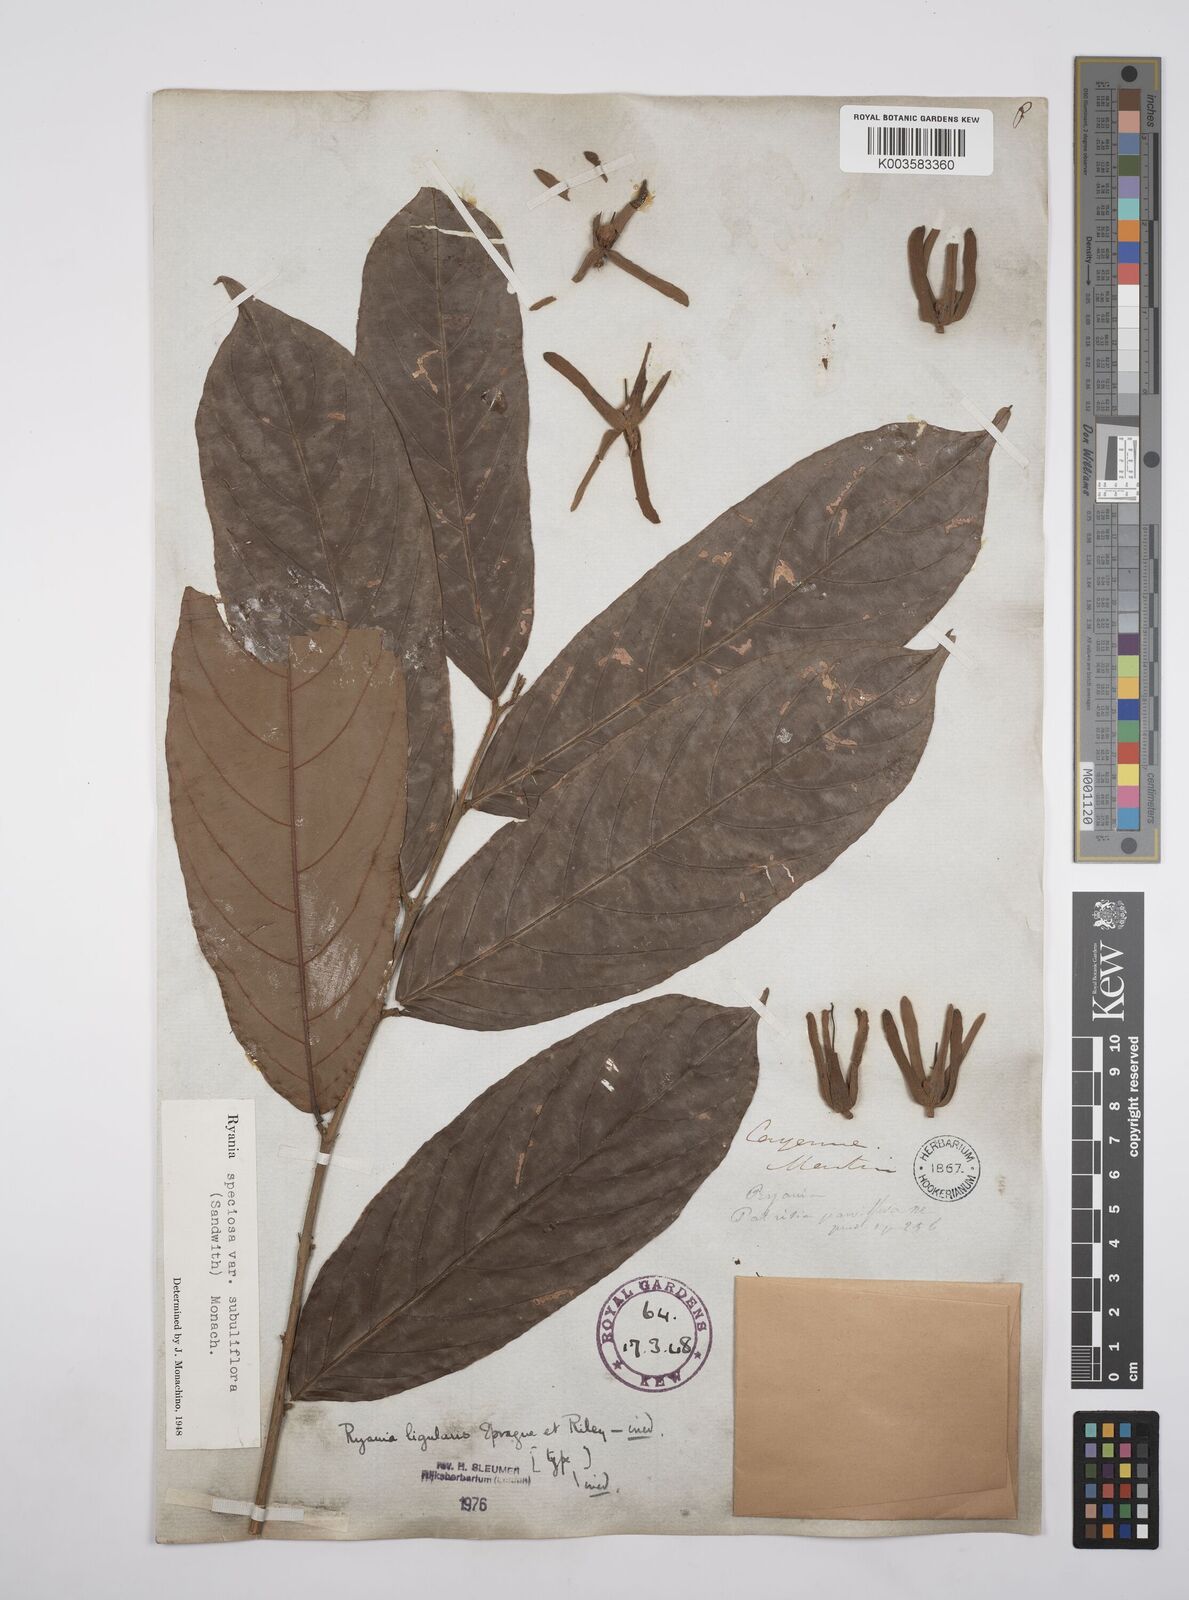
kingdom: Plantae
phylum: Tracheophyta
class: Magnoliopsida
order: Malpighiales
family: Salicaceae
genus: Ryania
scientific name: Ryania speciosa
